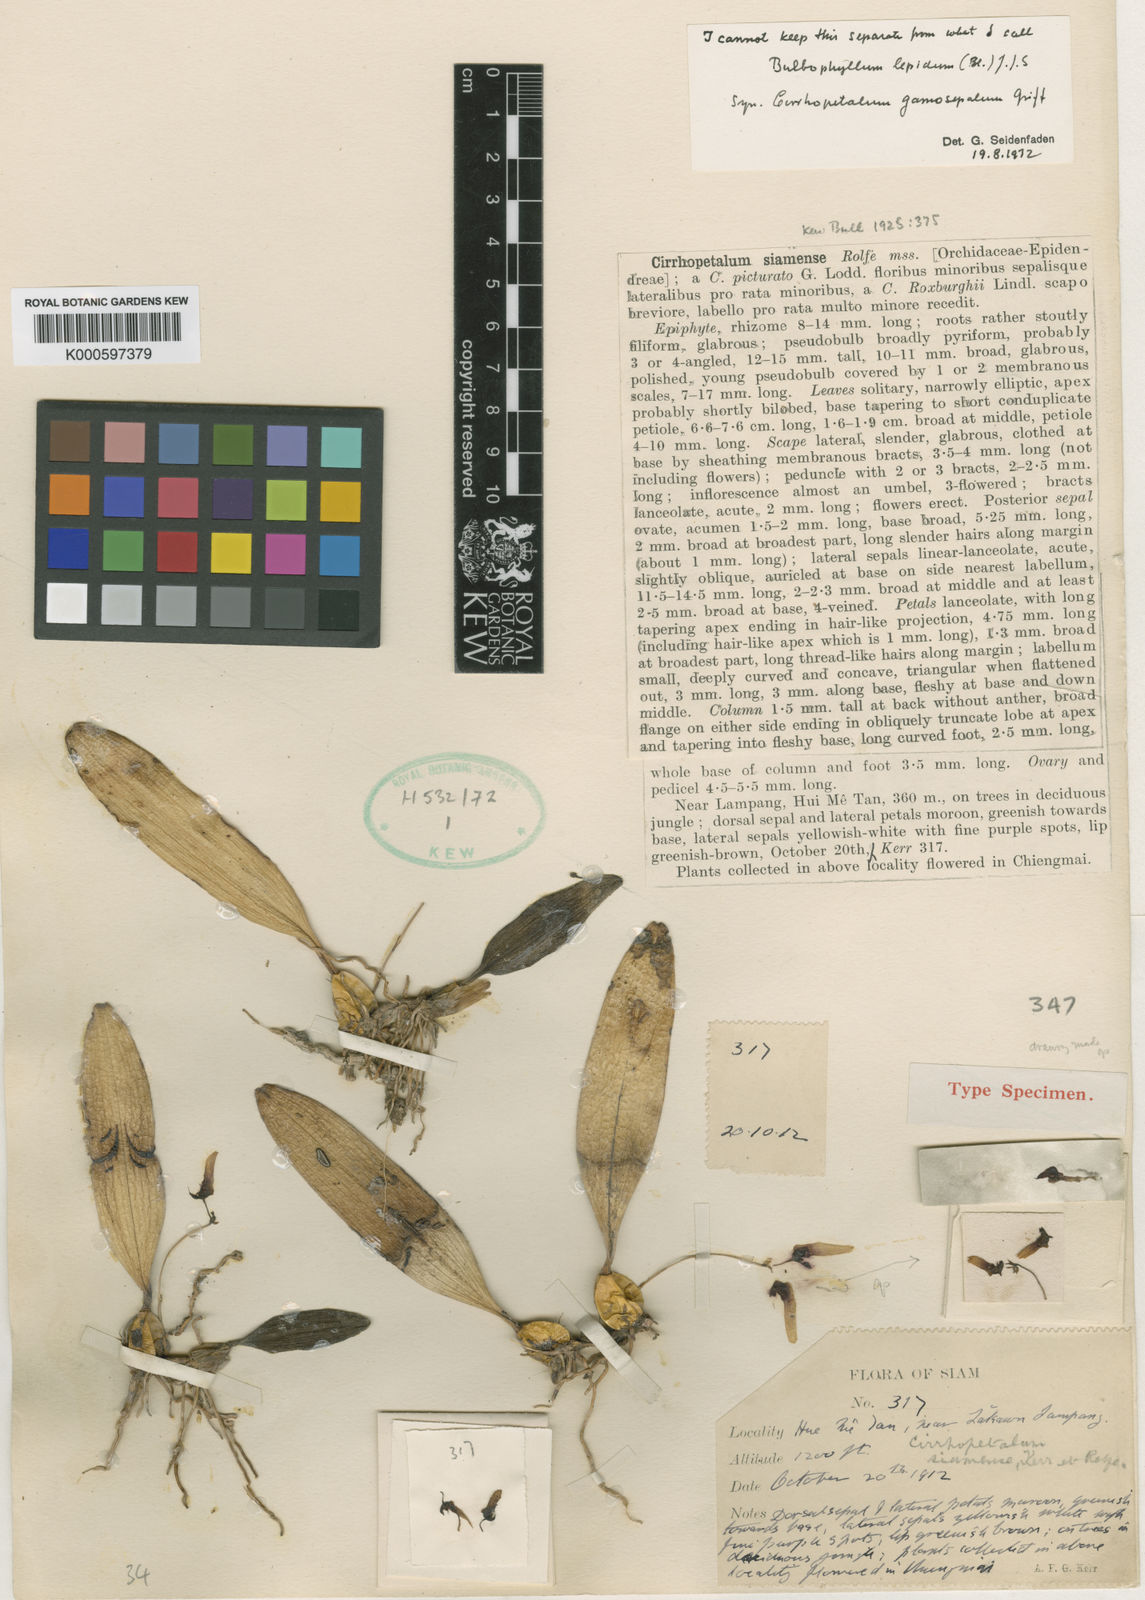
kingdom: Plantae
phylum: Tracheophyta
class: Liliopsida
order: Asparagales
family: Orchidaceae
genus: Bulbophyllum
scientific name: Bulbophyllum lepidum
